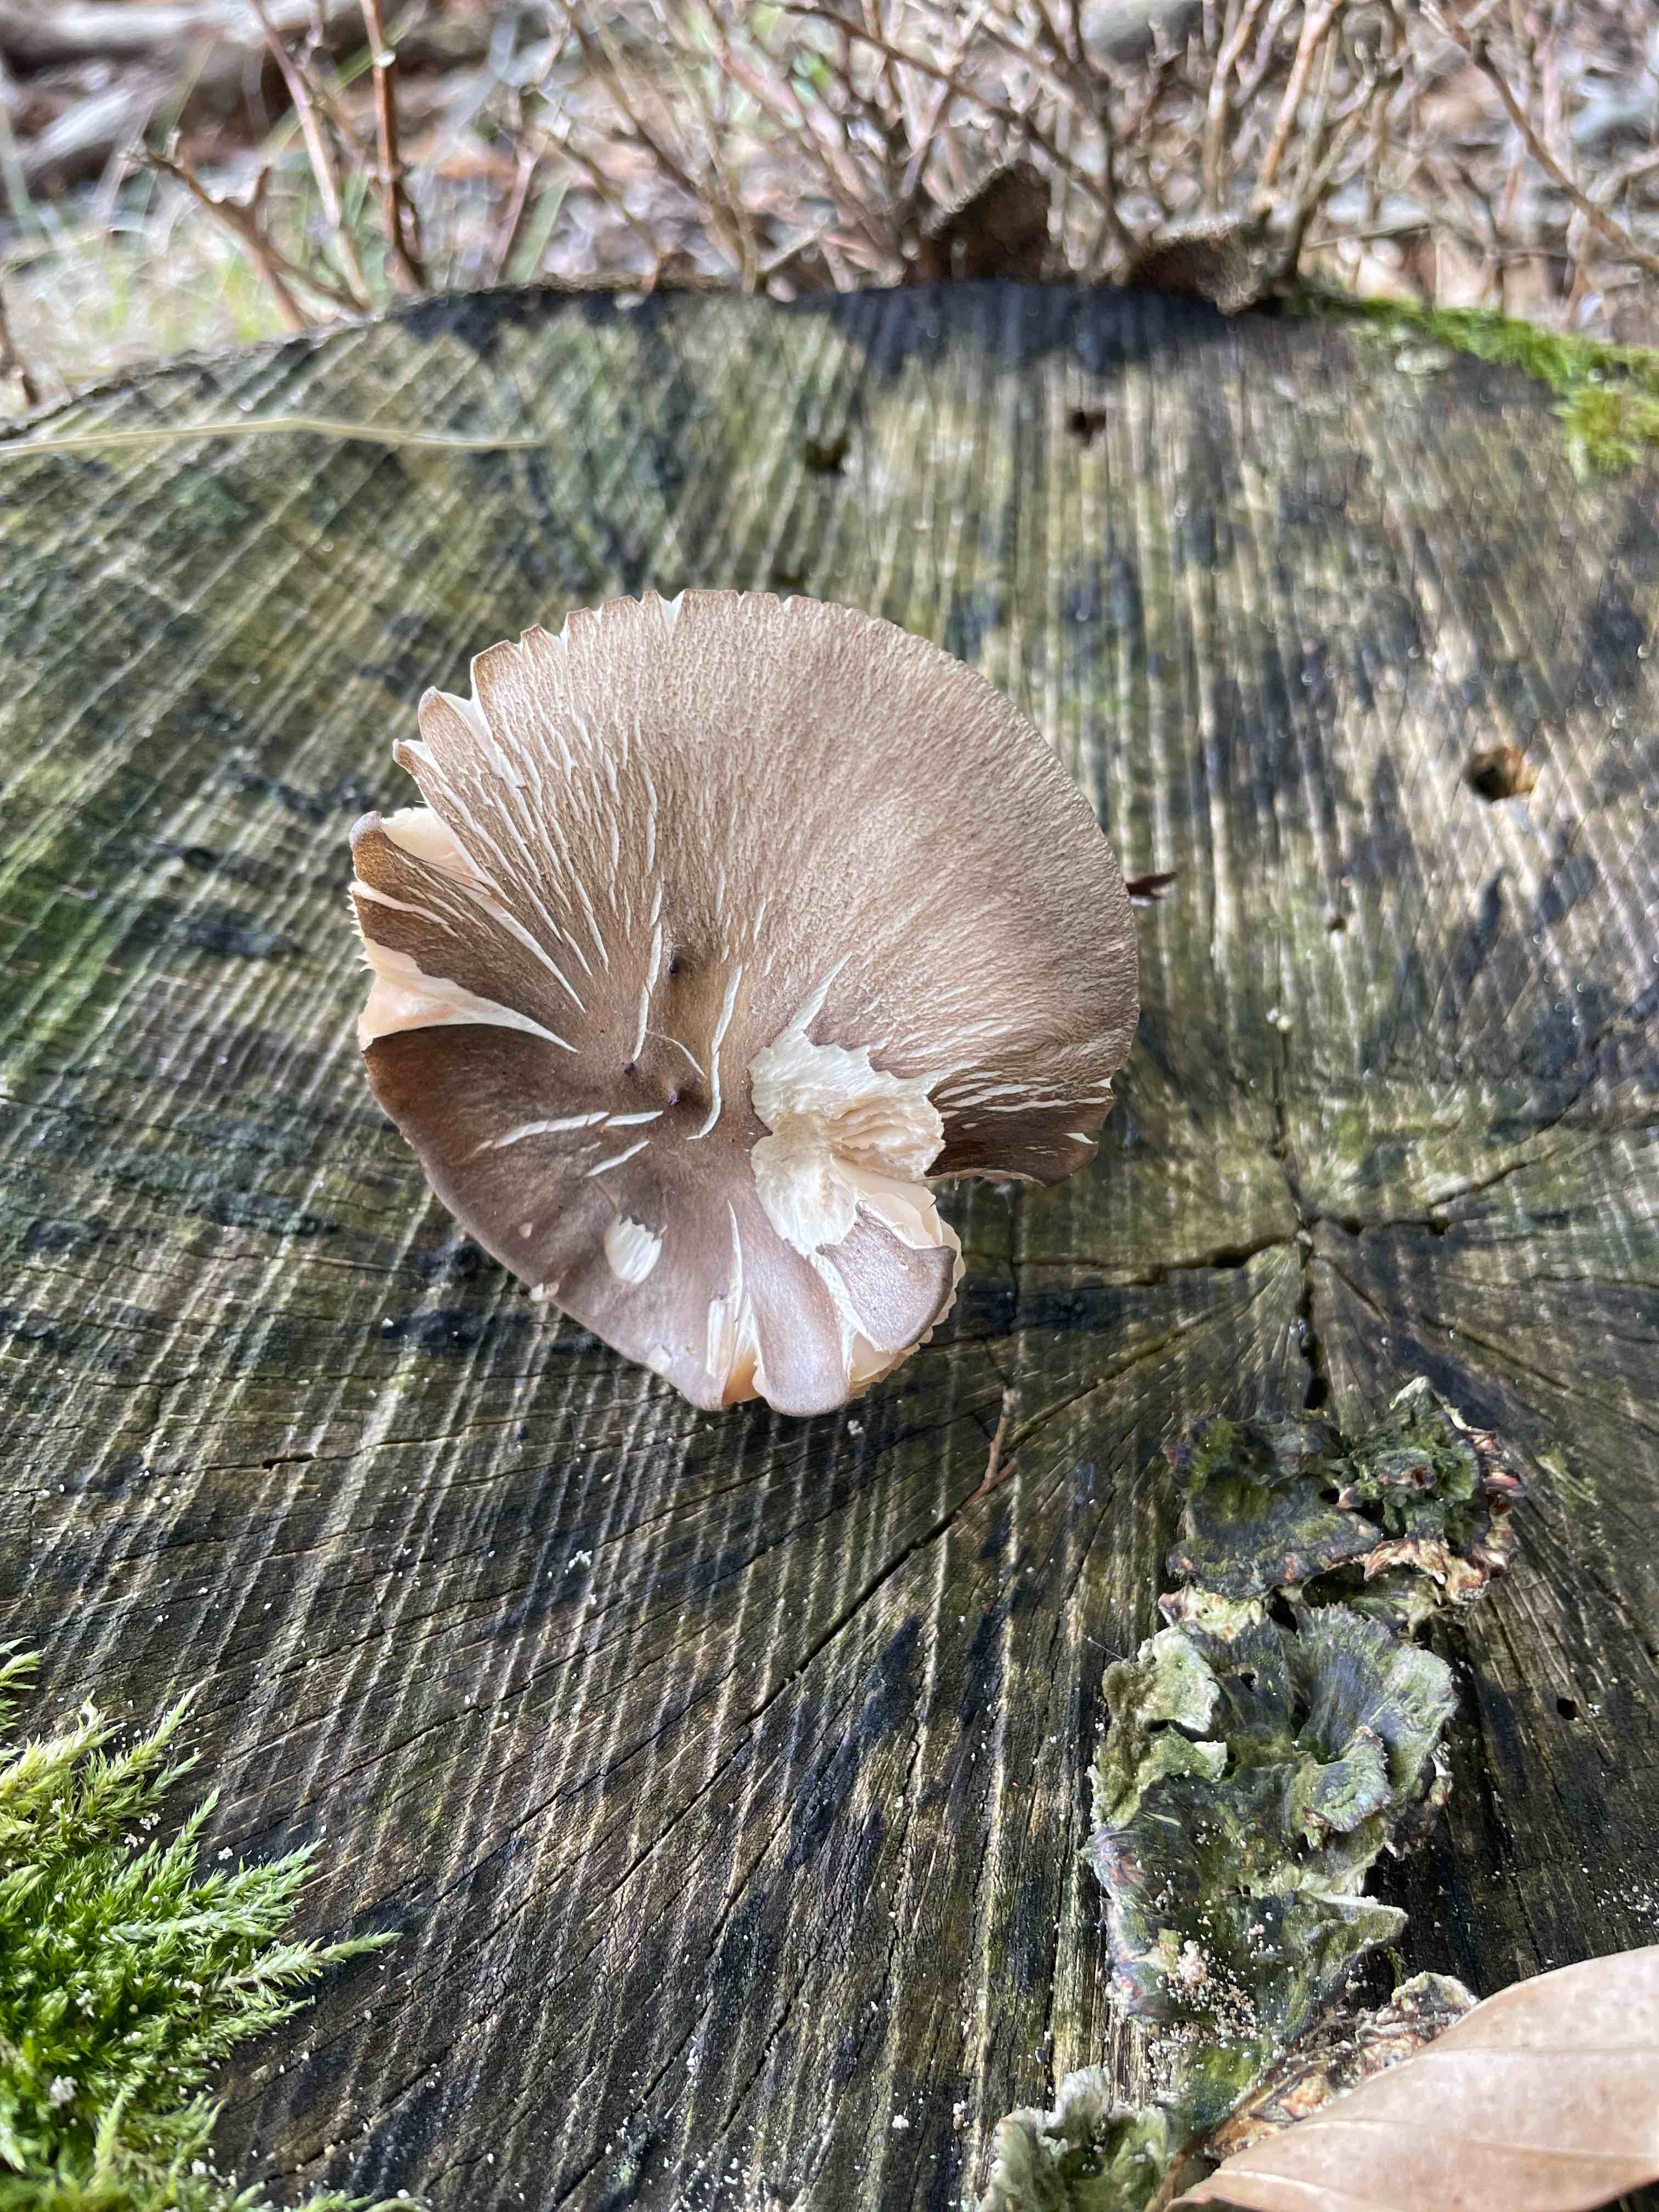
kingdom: Fungi
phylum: Basidiomycota
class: Agaricomycetes
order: Agaricales
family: Tricholomataceae
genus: Megacollybia
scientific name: Megacollybia platyphylla
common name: bredbladet væbnerhat
